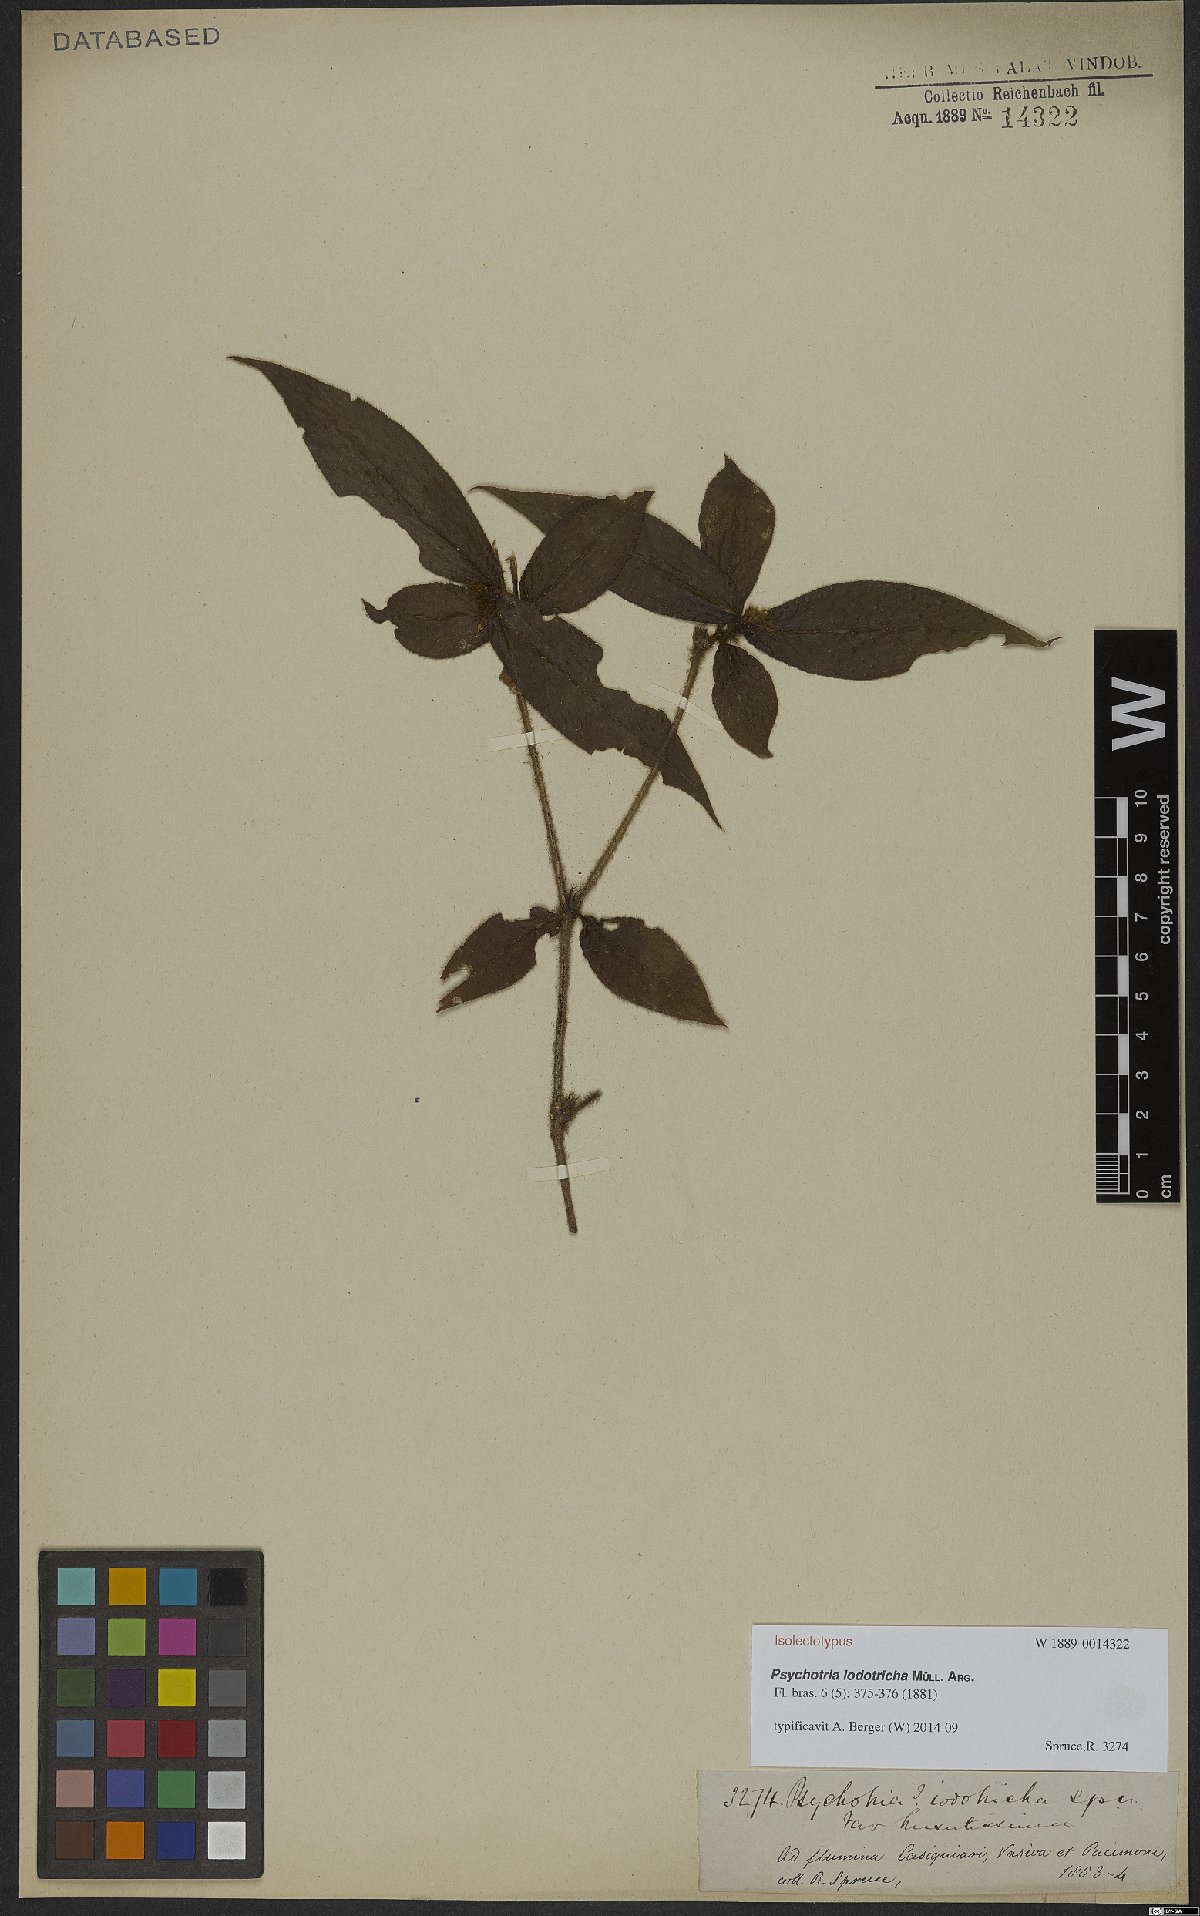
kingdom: Plantae
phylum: Tracheophyta
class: Magnoliopsida
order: Gentianales
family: Rubiaceae
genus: Palicourea
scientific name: Palicourea iodotricha
